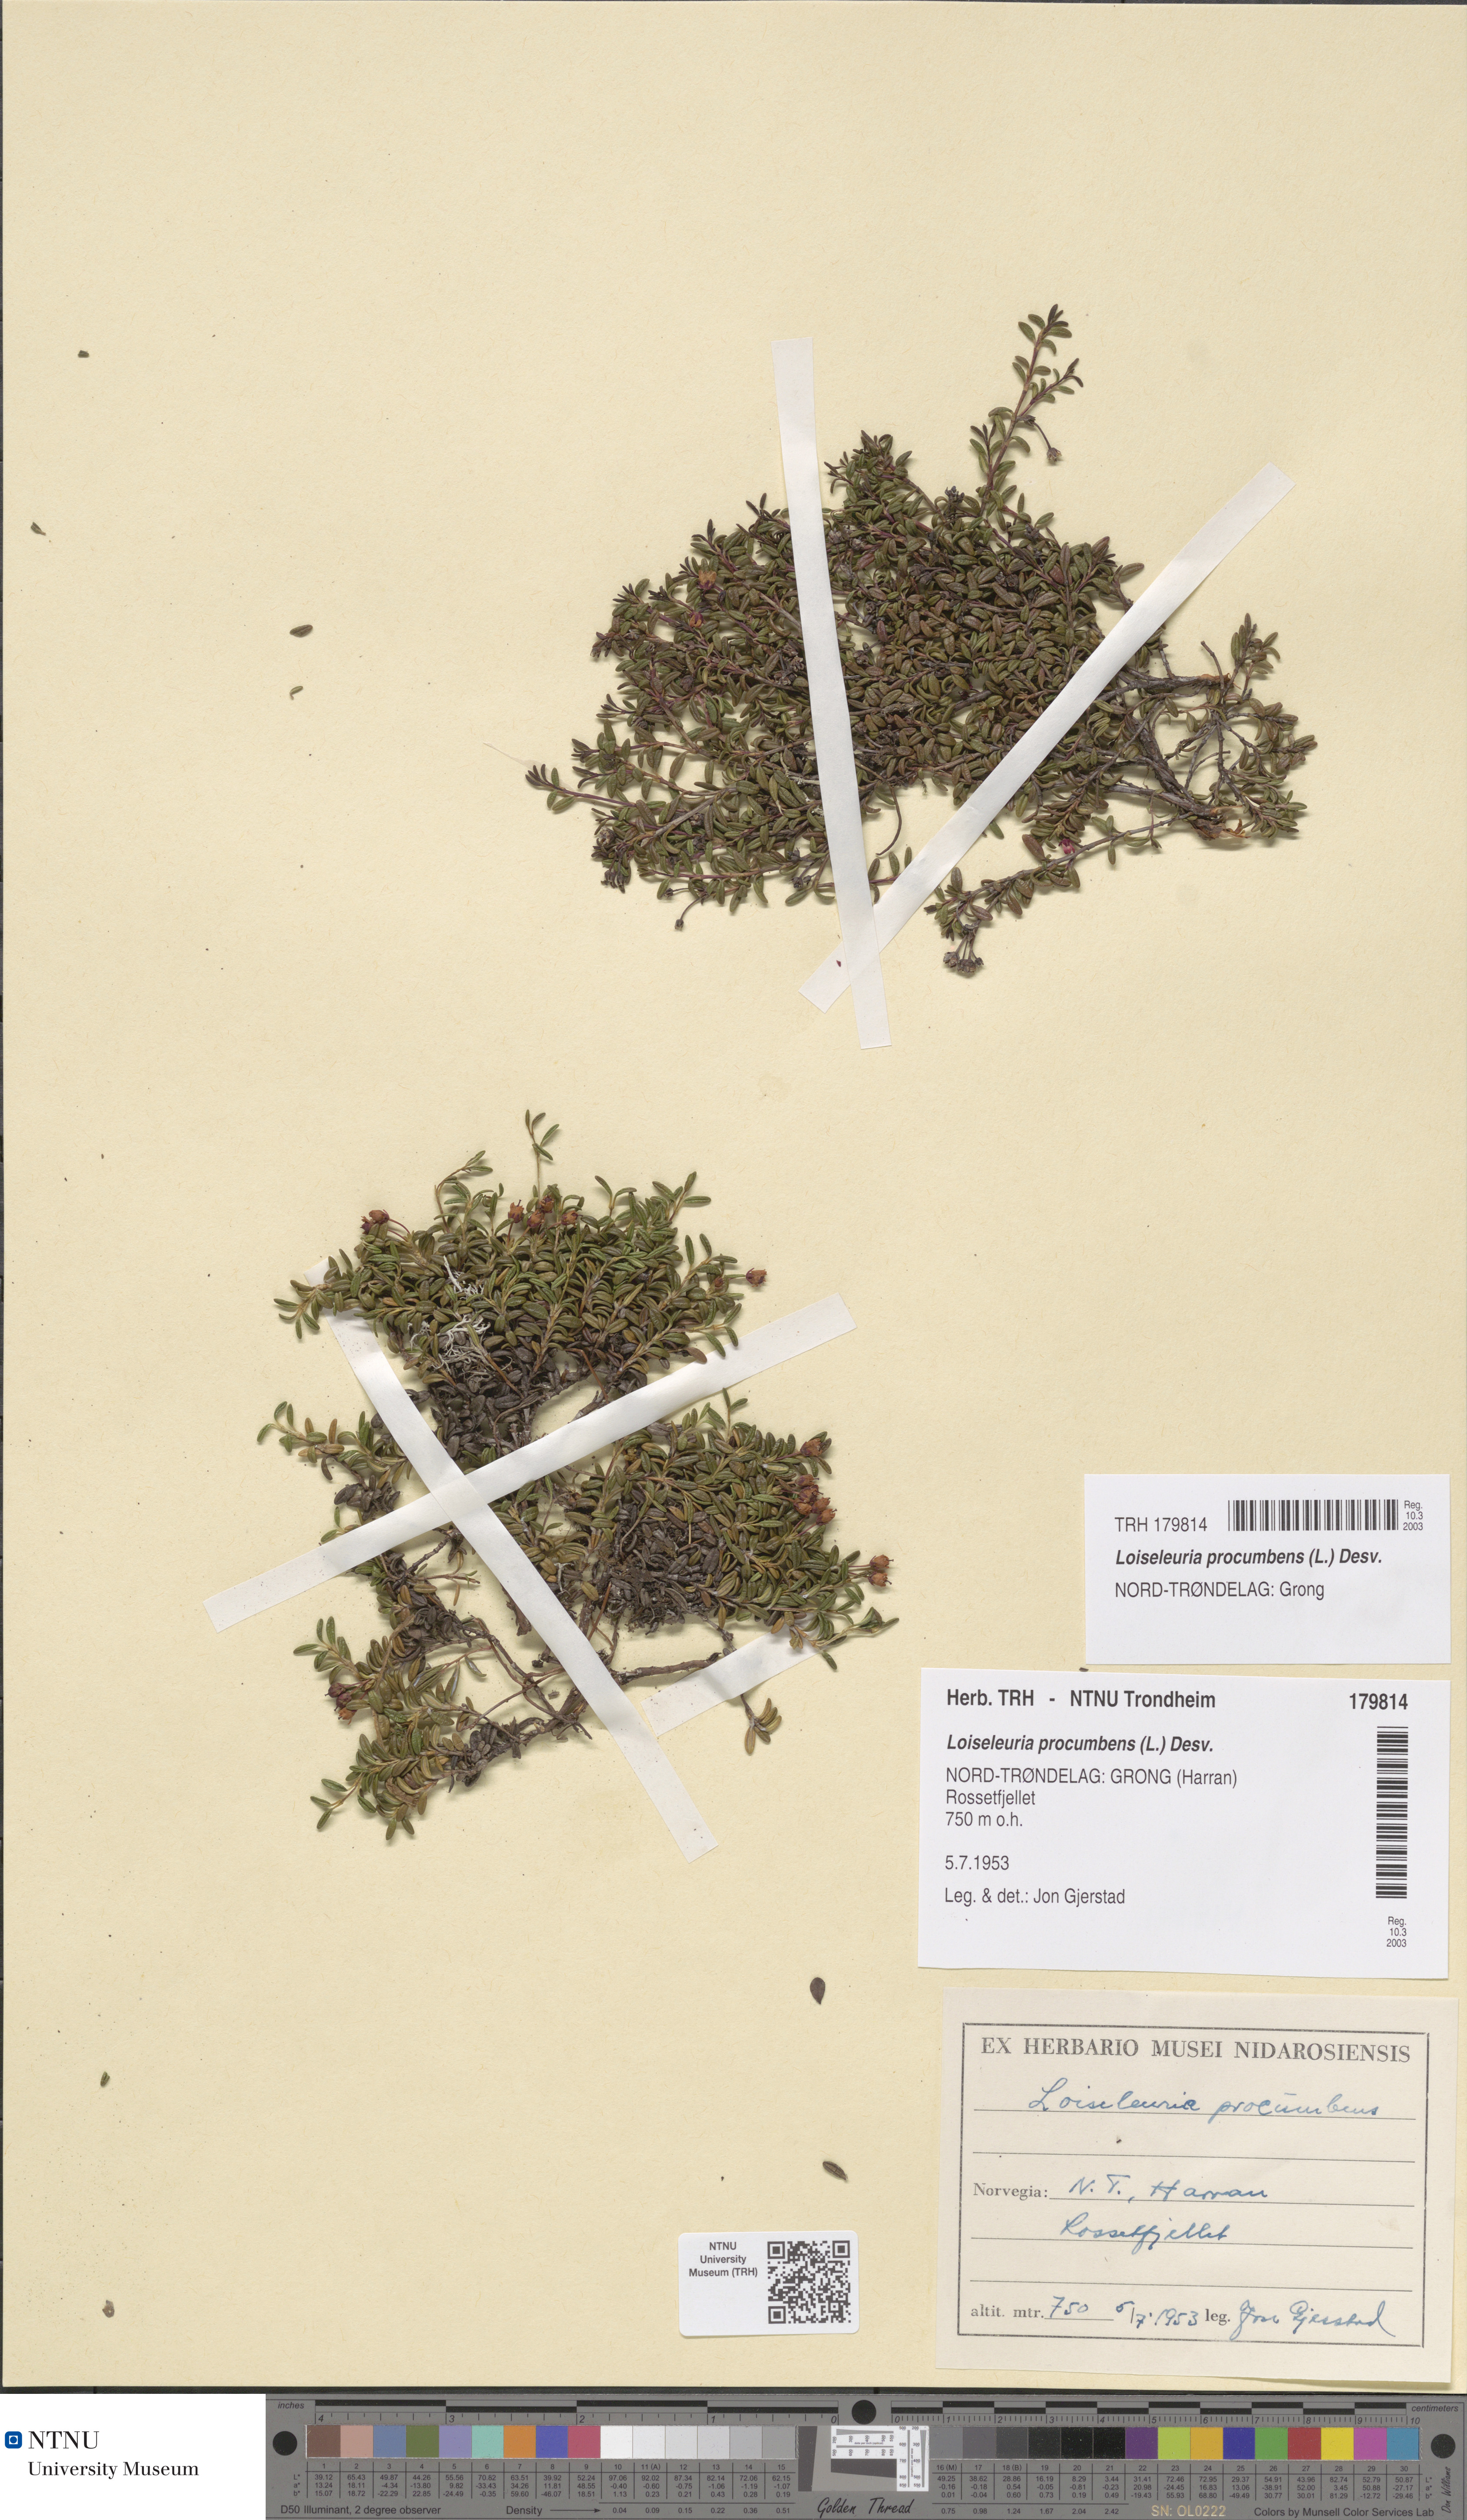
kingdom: Plantae
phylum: Tracheophyta
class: Magnoliopsida
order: Ericales
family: Ericaceae
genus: Kalmia
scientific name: Kalmia procumbens
